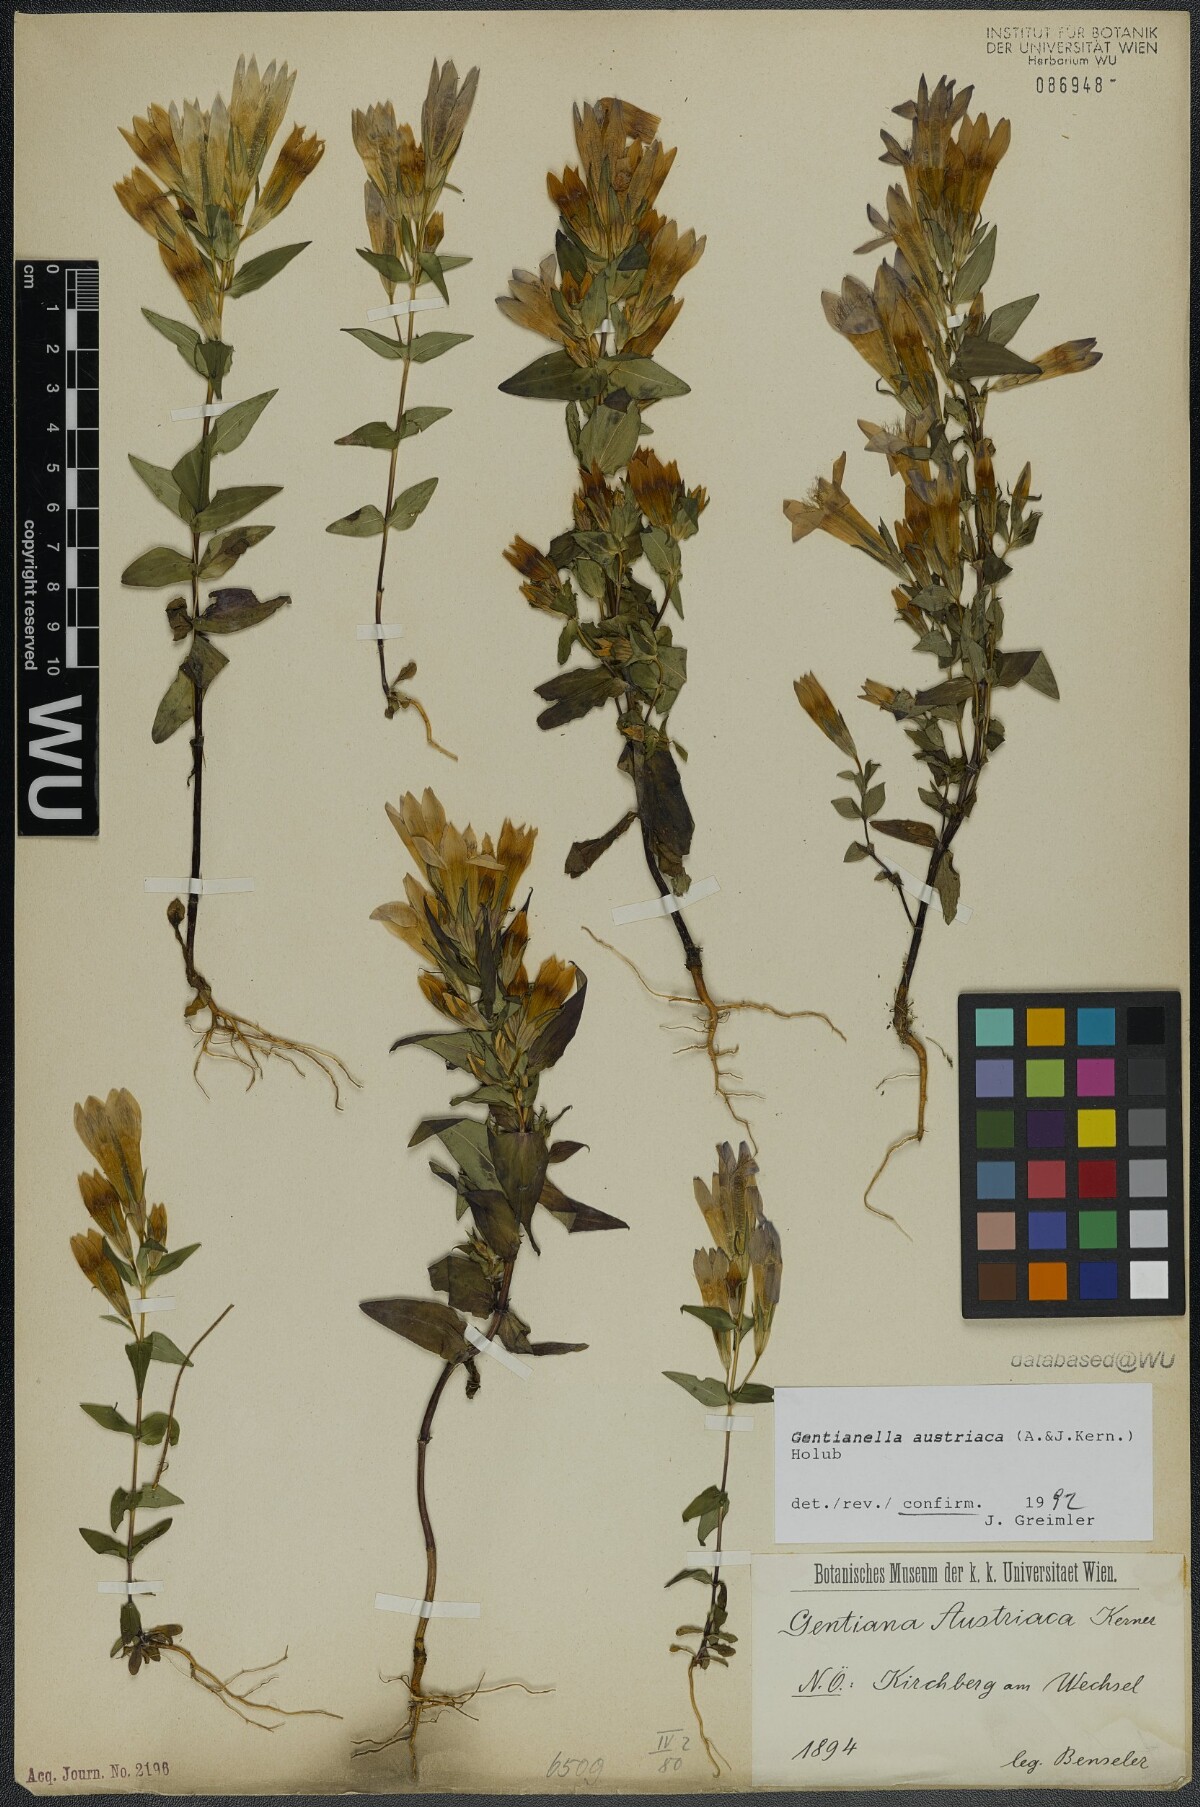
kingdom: Plantae
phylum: Tracheophyta
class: Magnoliopsida
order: Gentianales
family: Gentianaceae
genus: Gentianella
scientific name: Gentianella austriaca
